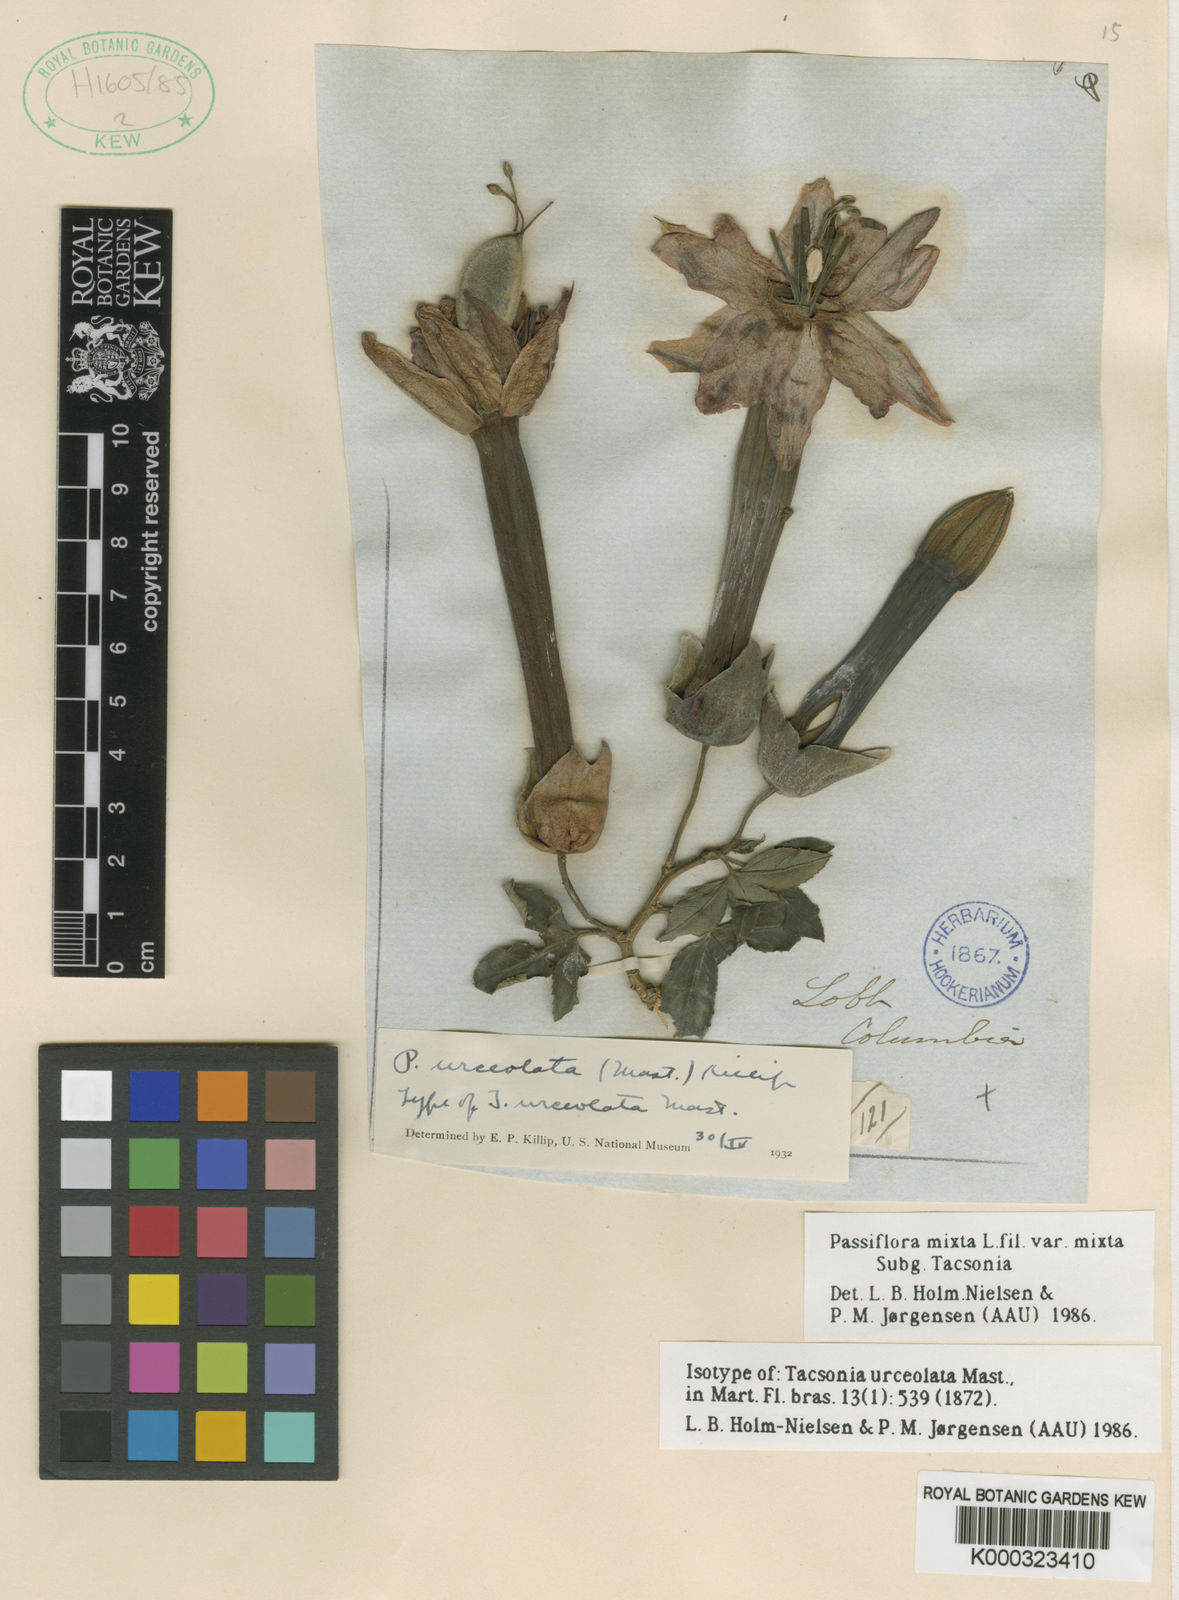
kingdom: Plantae
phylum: Tracheophyta
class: Magnoliopsida
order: Malpighiales
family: Passifloraceae
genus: Passiflora
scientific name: Passiflora mixta
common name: Passion flower
